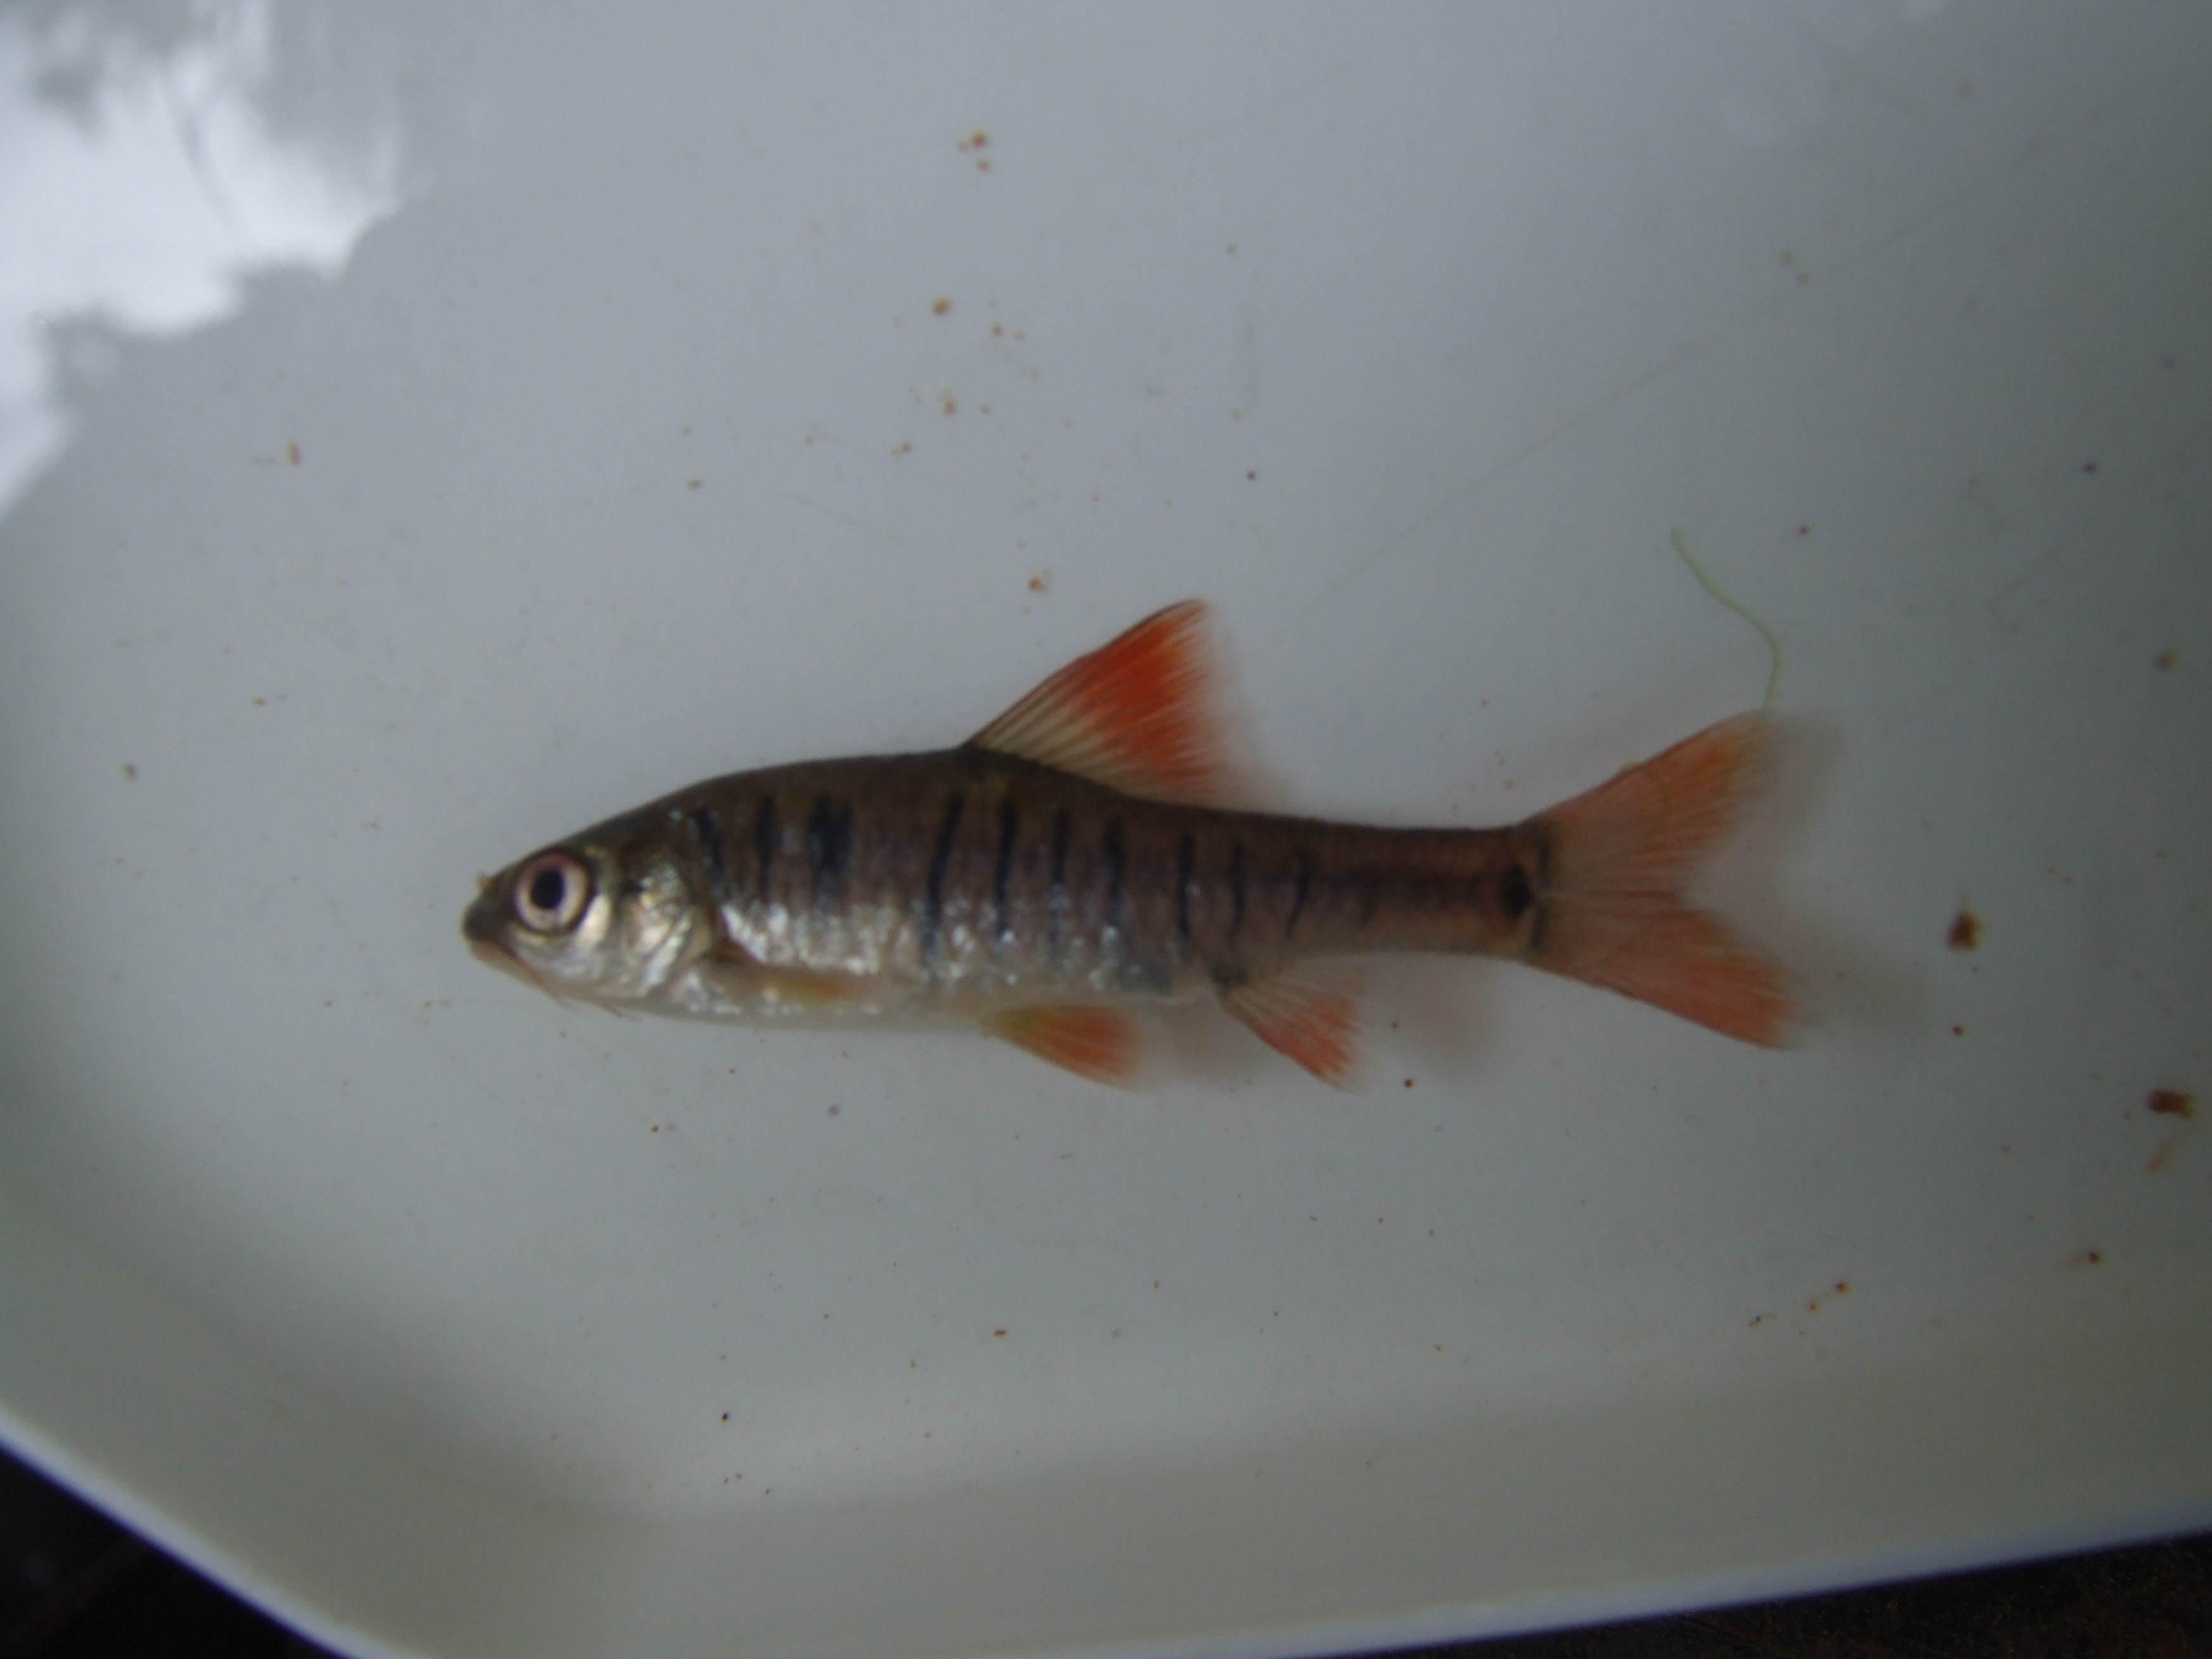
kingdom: Animalia
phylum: Chordata
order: Cypriniformes
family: Cyprinidae
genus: Enteromius
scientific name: Enteromius fasciolatus
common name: Red barb
